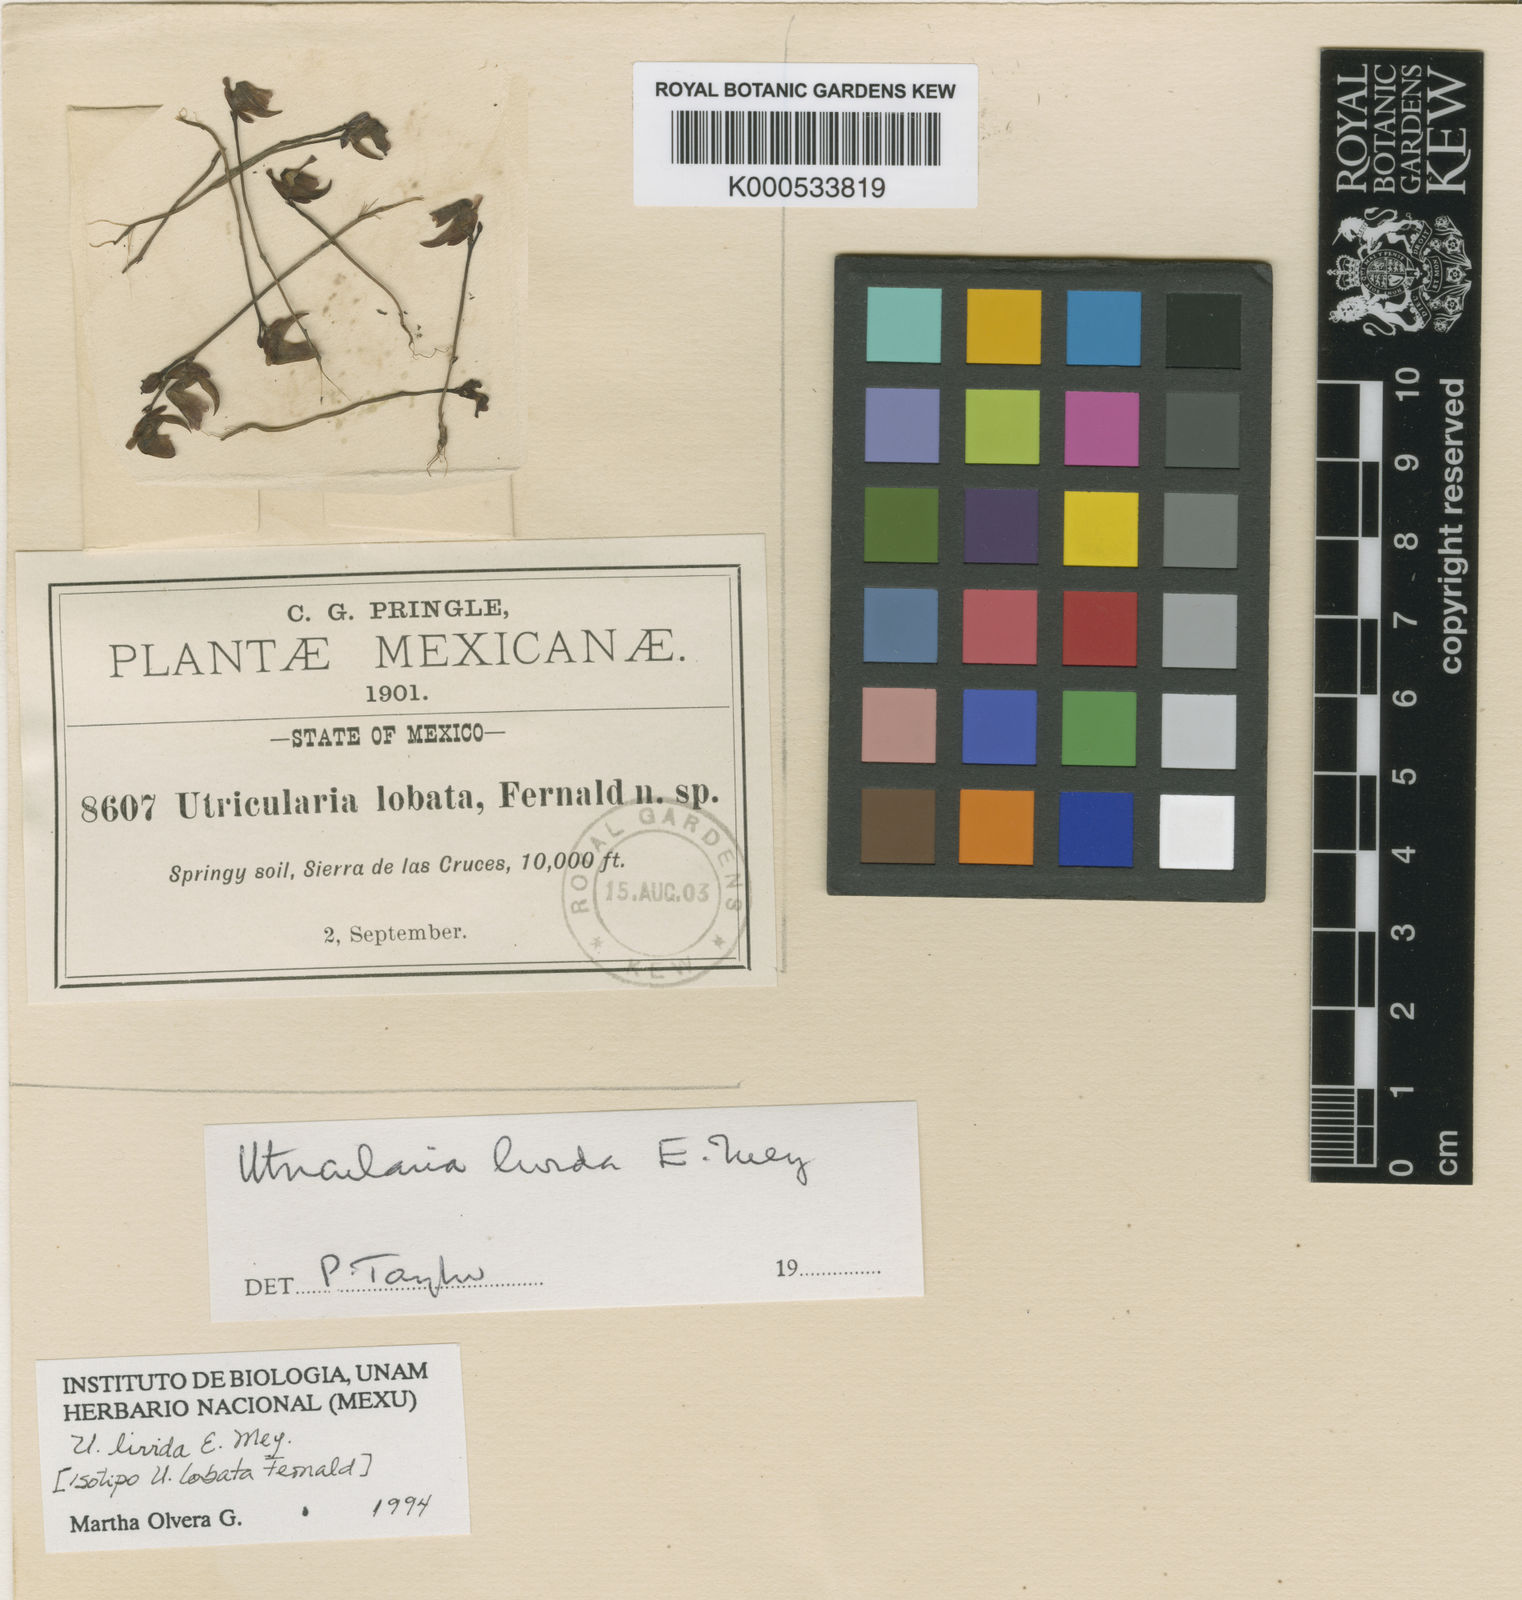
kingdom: Plantae
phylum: Tracheophyta
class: Magnoliopsida
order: Lamiales
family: Lentibulariaceae
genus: Utricularia
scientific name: Utricularia livida
